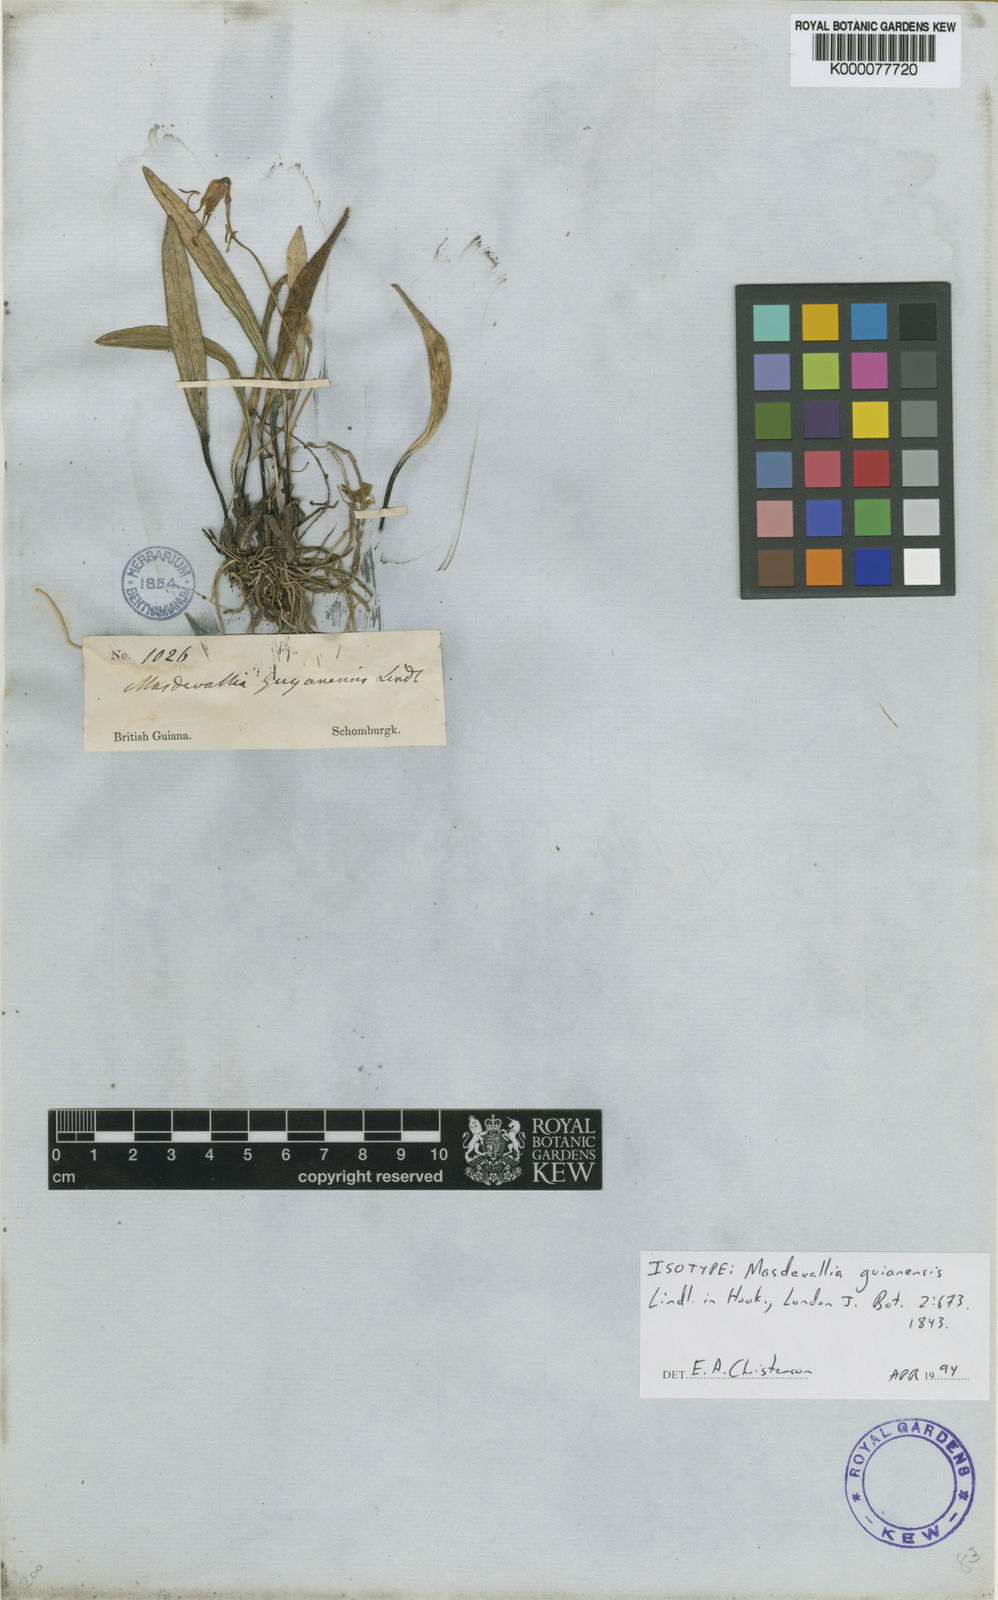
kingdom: Plantae
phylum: Tracheophyta
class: Liliopsida
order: Asparagales
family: Orchidaceae
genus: Masdevallia
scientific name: Masdevallia
